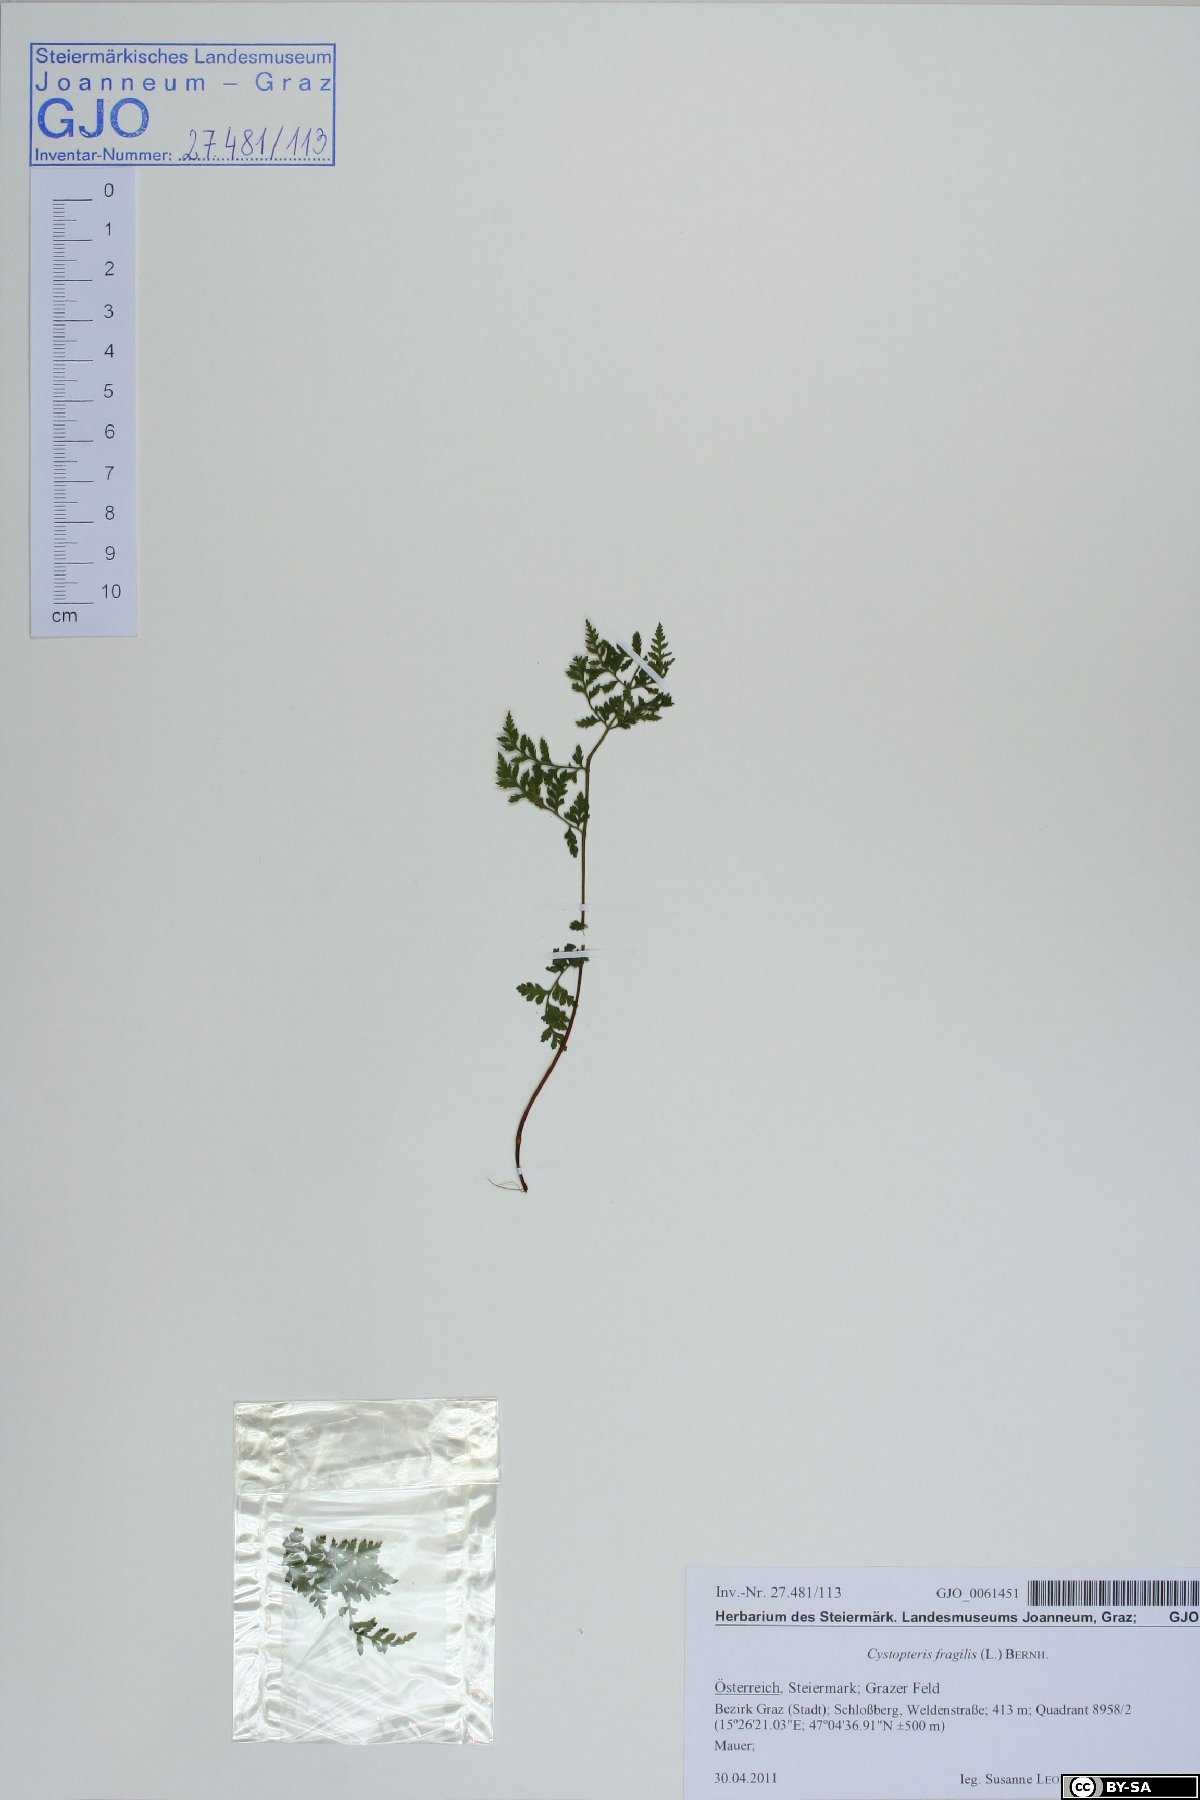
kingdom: Plantae
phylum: Tracheophyta
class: Polypodiopsida
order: Polypodiales
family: Cystopteridaceae
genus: Cystopteris
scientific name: Cystopteris fragilis
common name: Brittle bladder fern
